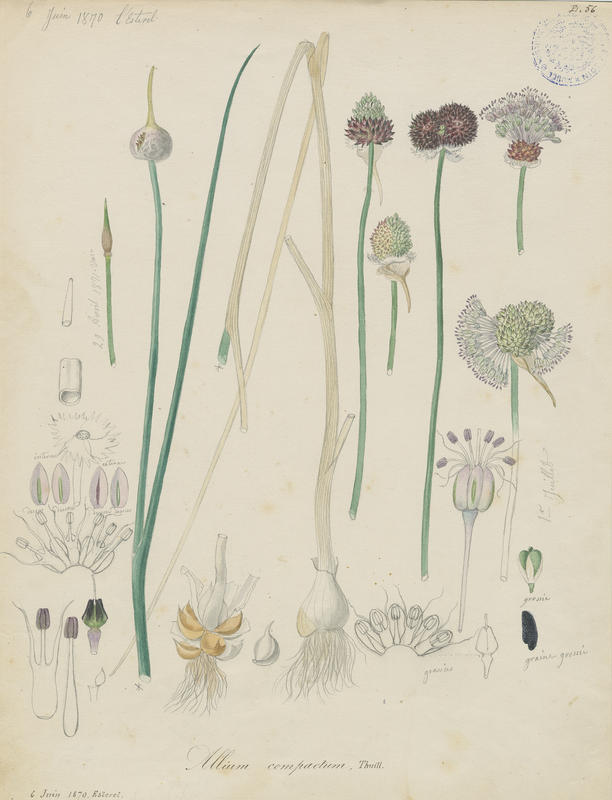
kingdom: Plantae
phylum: Tracheophyta
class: Liliopsida
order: Asparagales
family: Amaryllidaceae
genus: Allium
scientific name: Allium vineale
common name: Crow garlic
